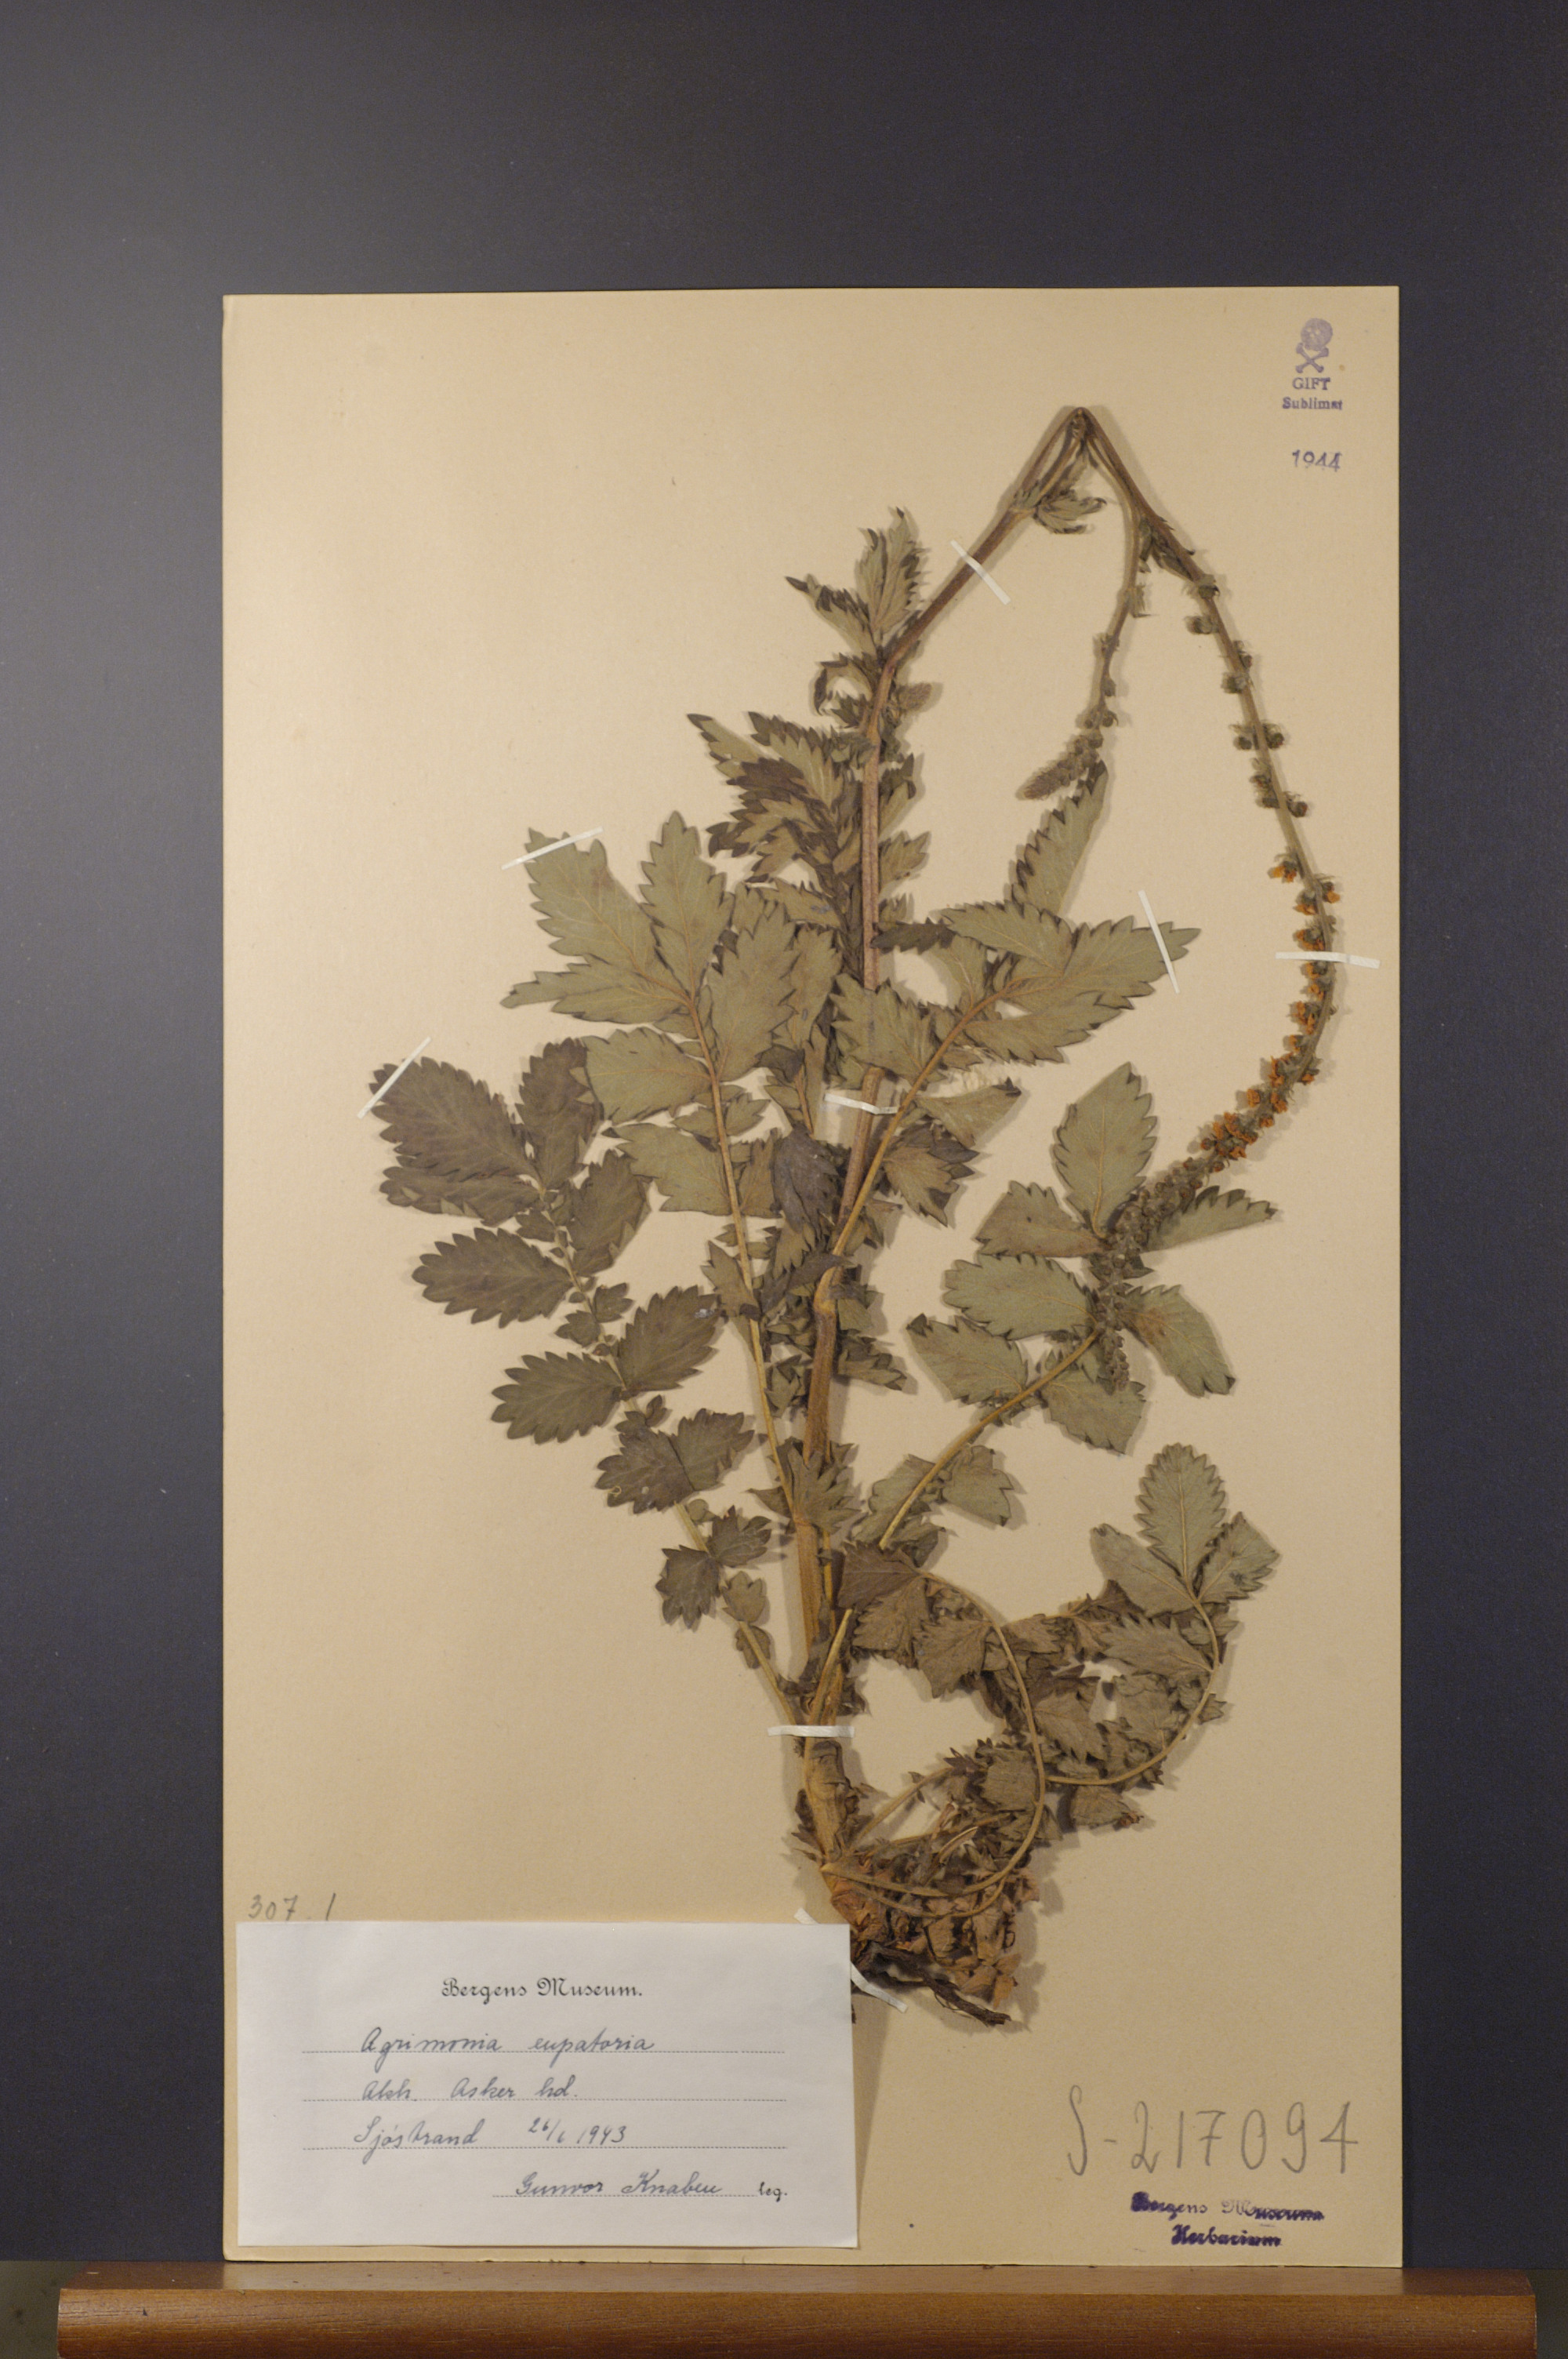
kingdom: Plantae
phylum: Tracheophyta
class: Magnoliopsida
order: Rosales
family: Rosaceae
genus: Agrimonia
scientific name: Agrimonia eupatoria
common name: Agrimony
